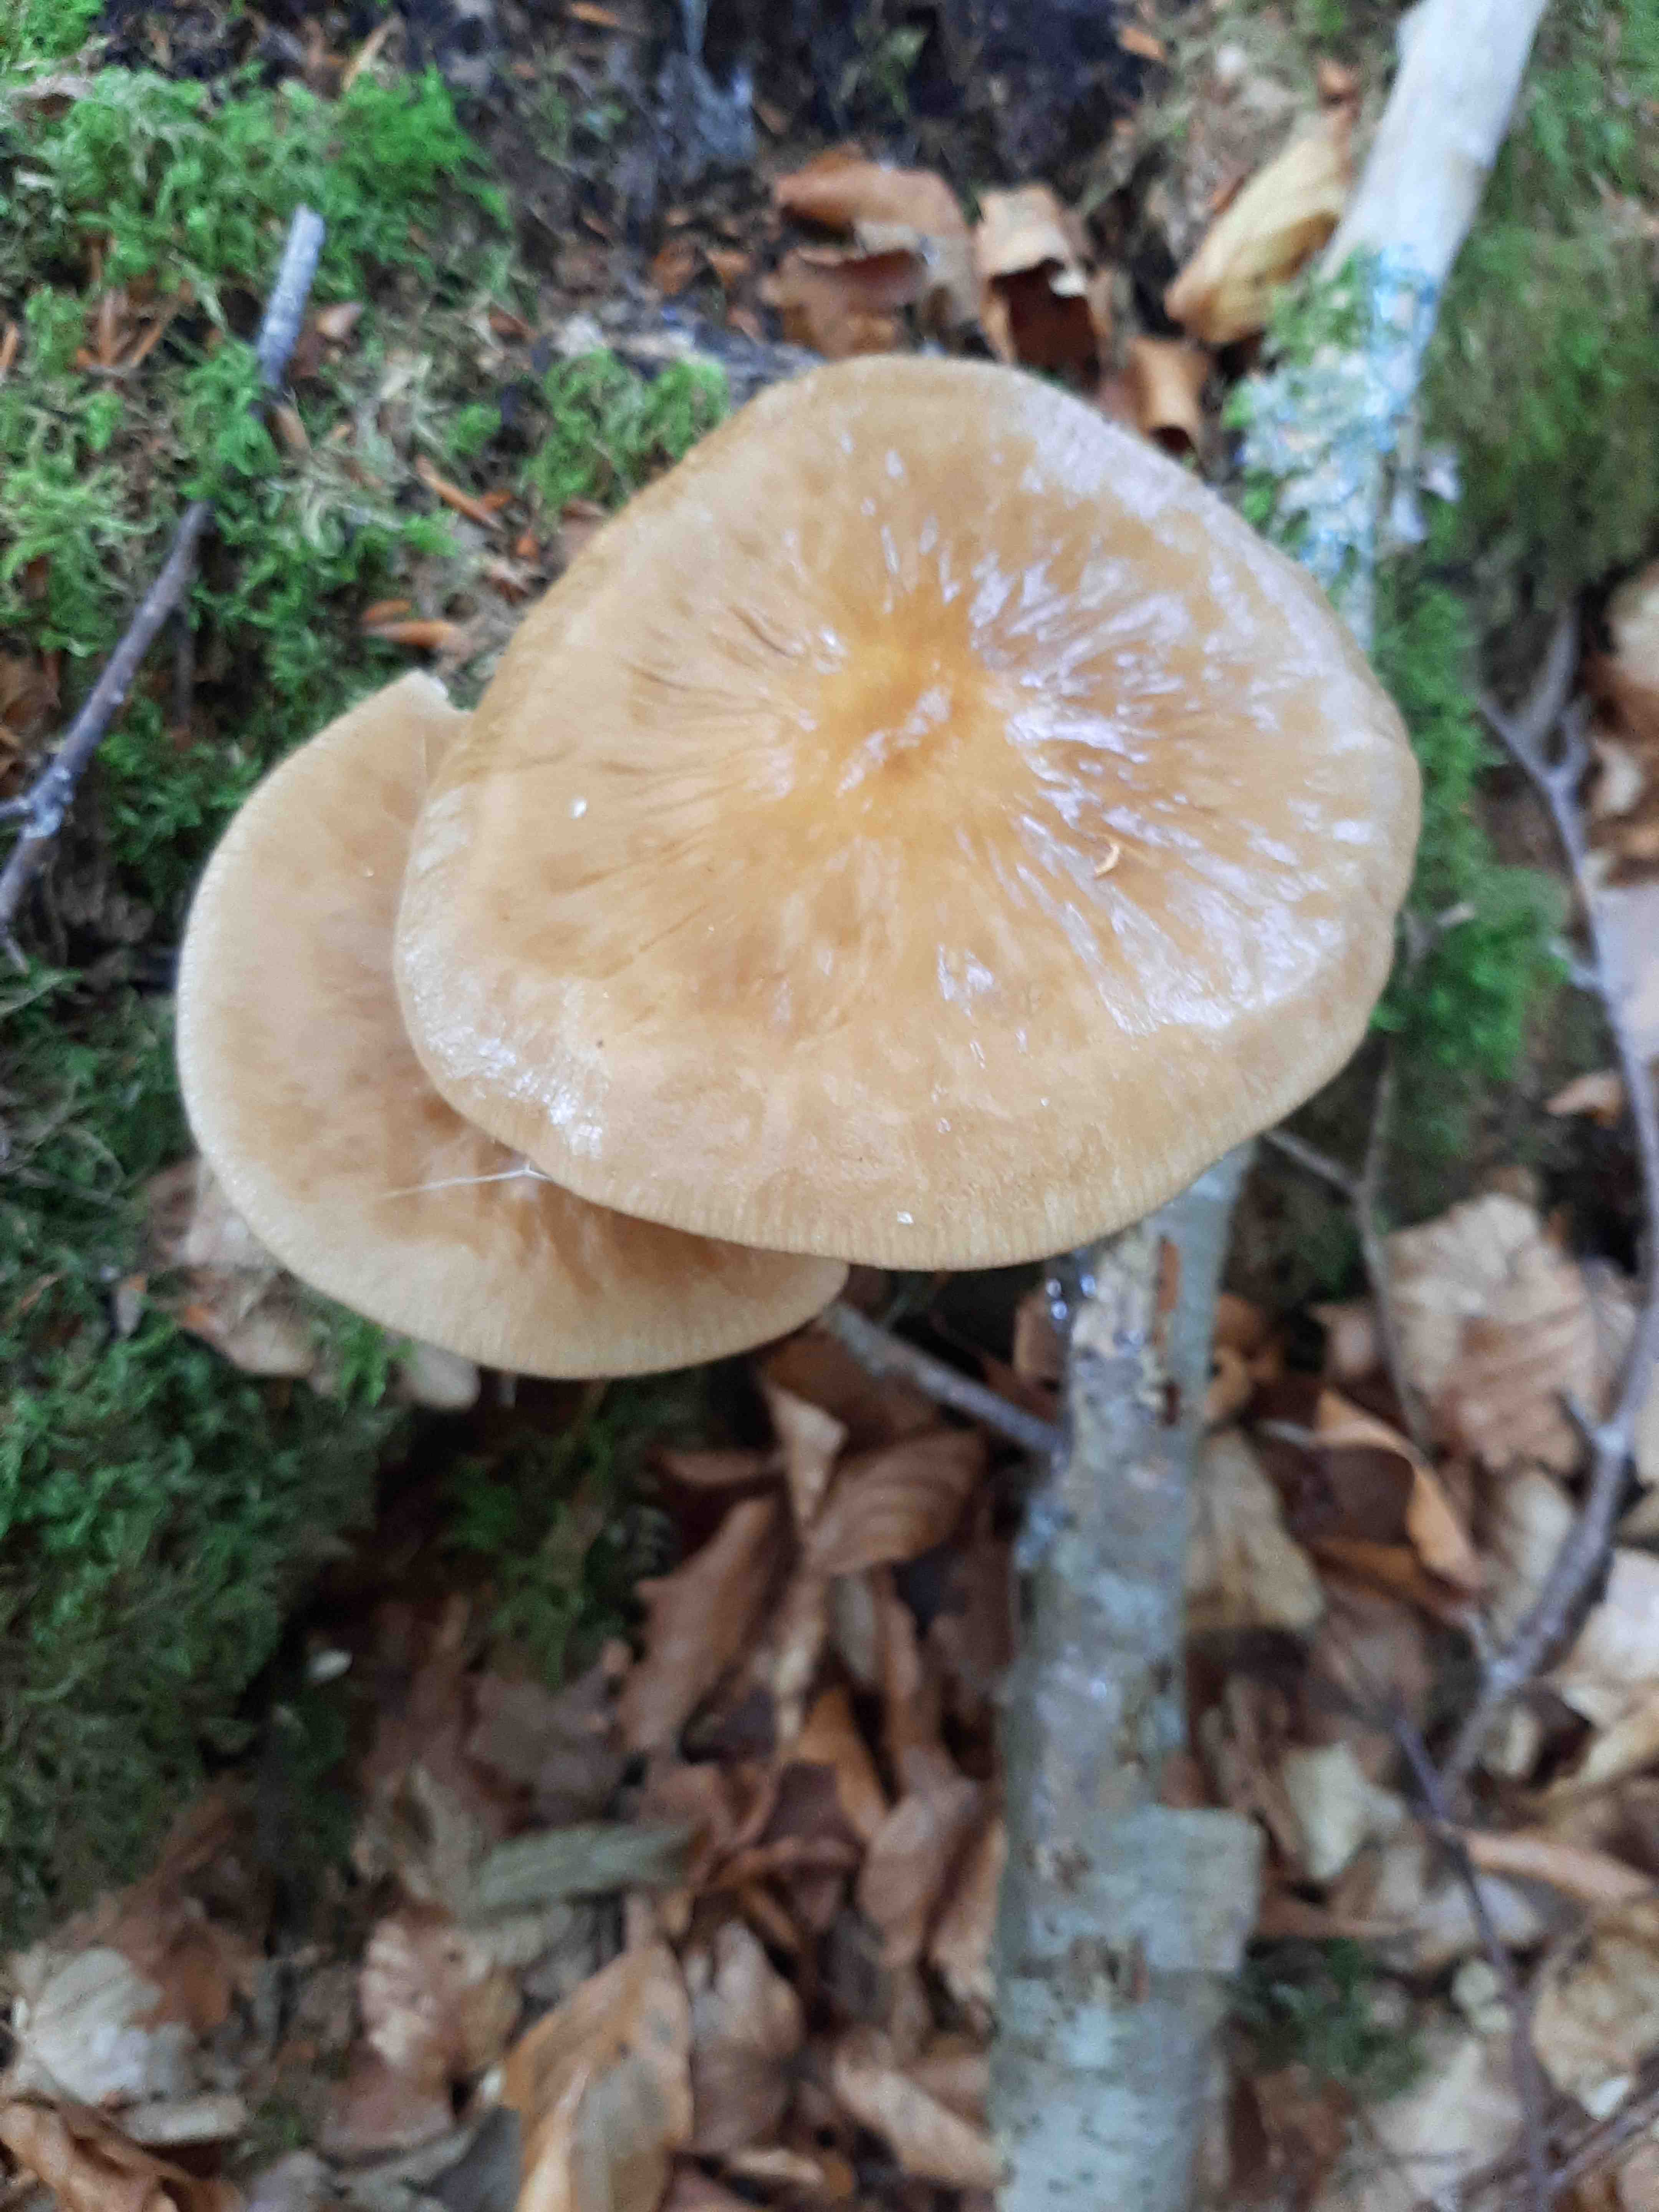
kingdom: Fungi
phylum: Basidiomycota
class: Agaricomycetes
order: Agaricales
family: Physalacriaceae
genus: Hymenopellis
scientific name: Hymenopellis radicata
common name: almindelig pælerodshat
